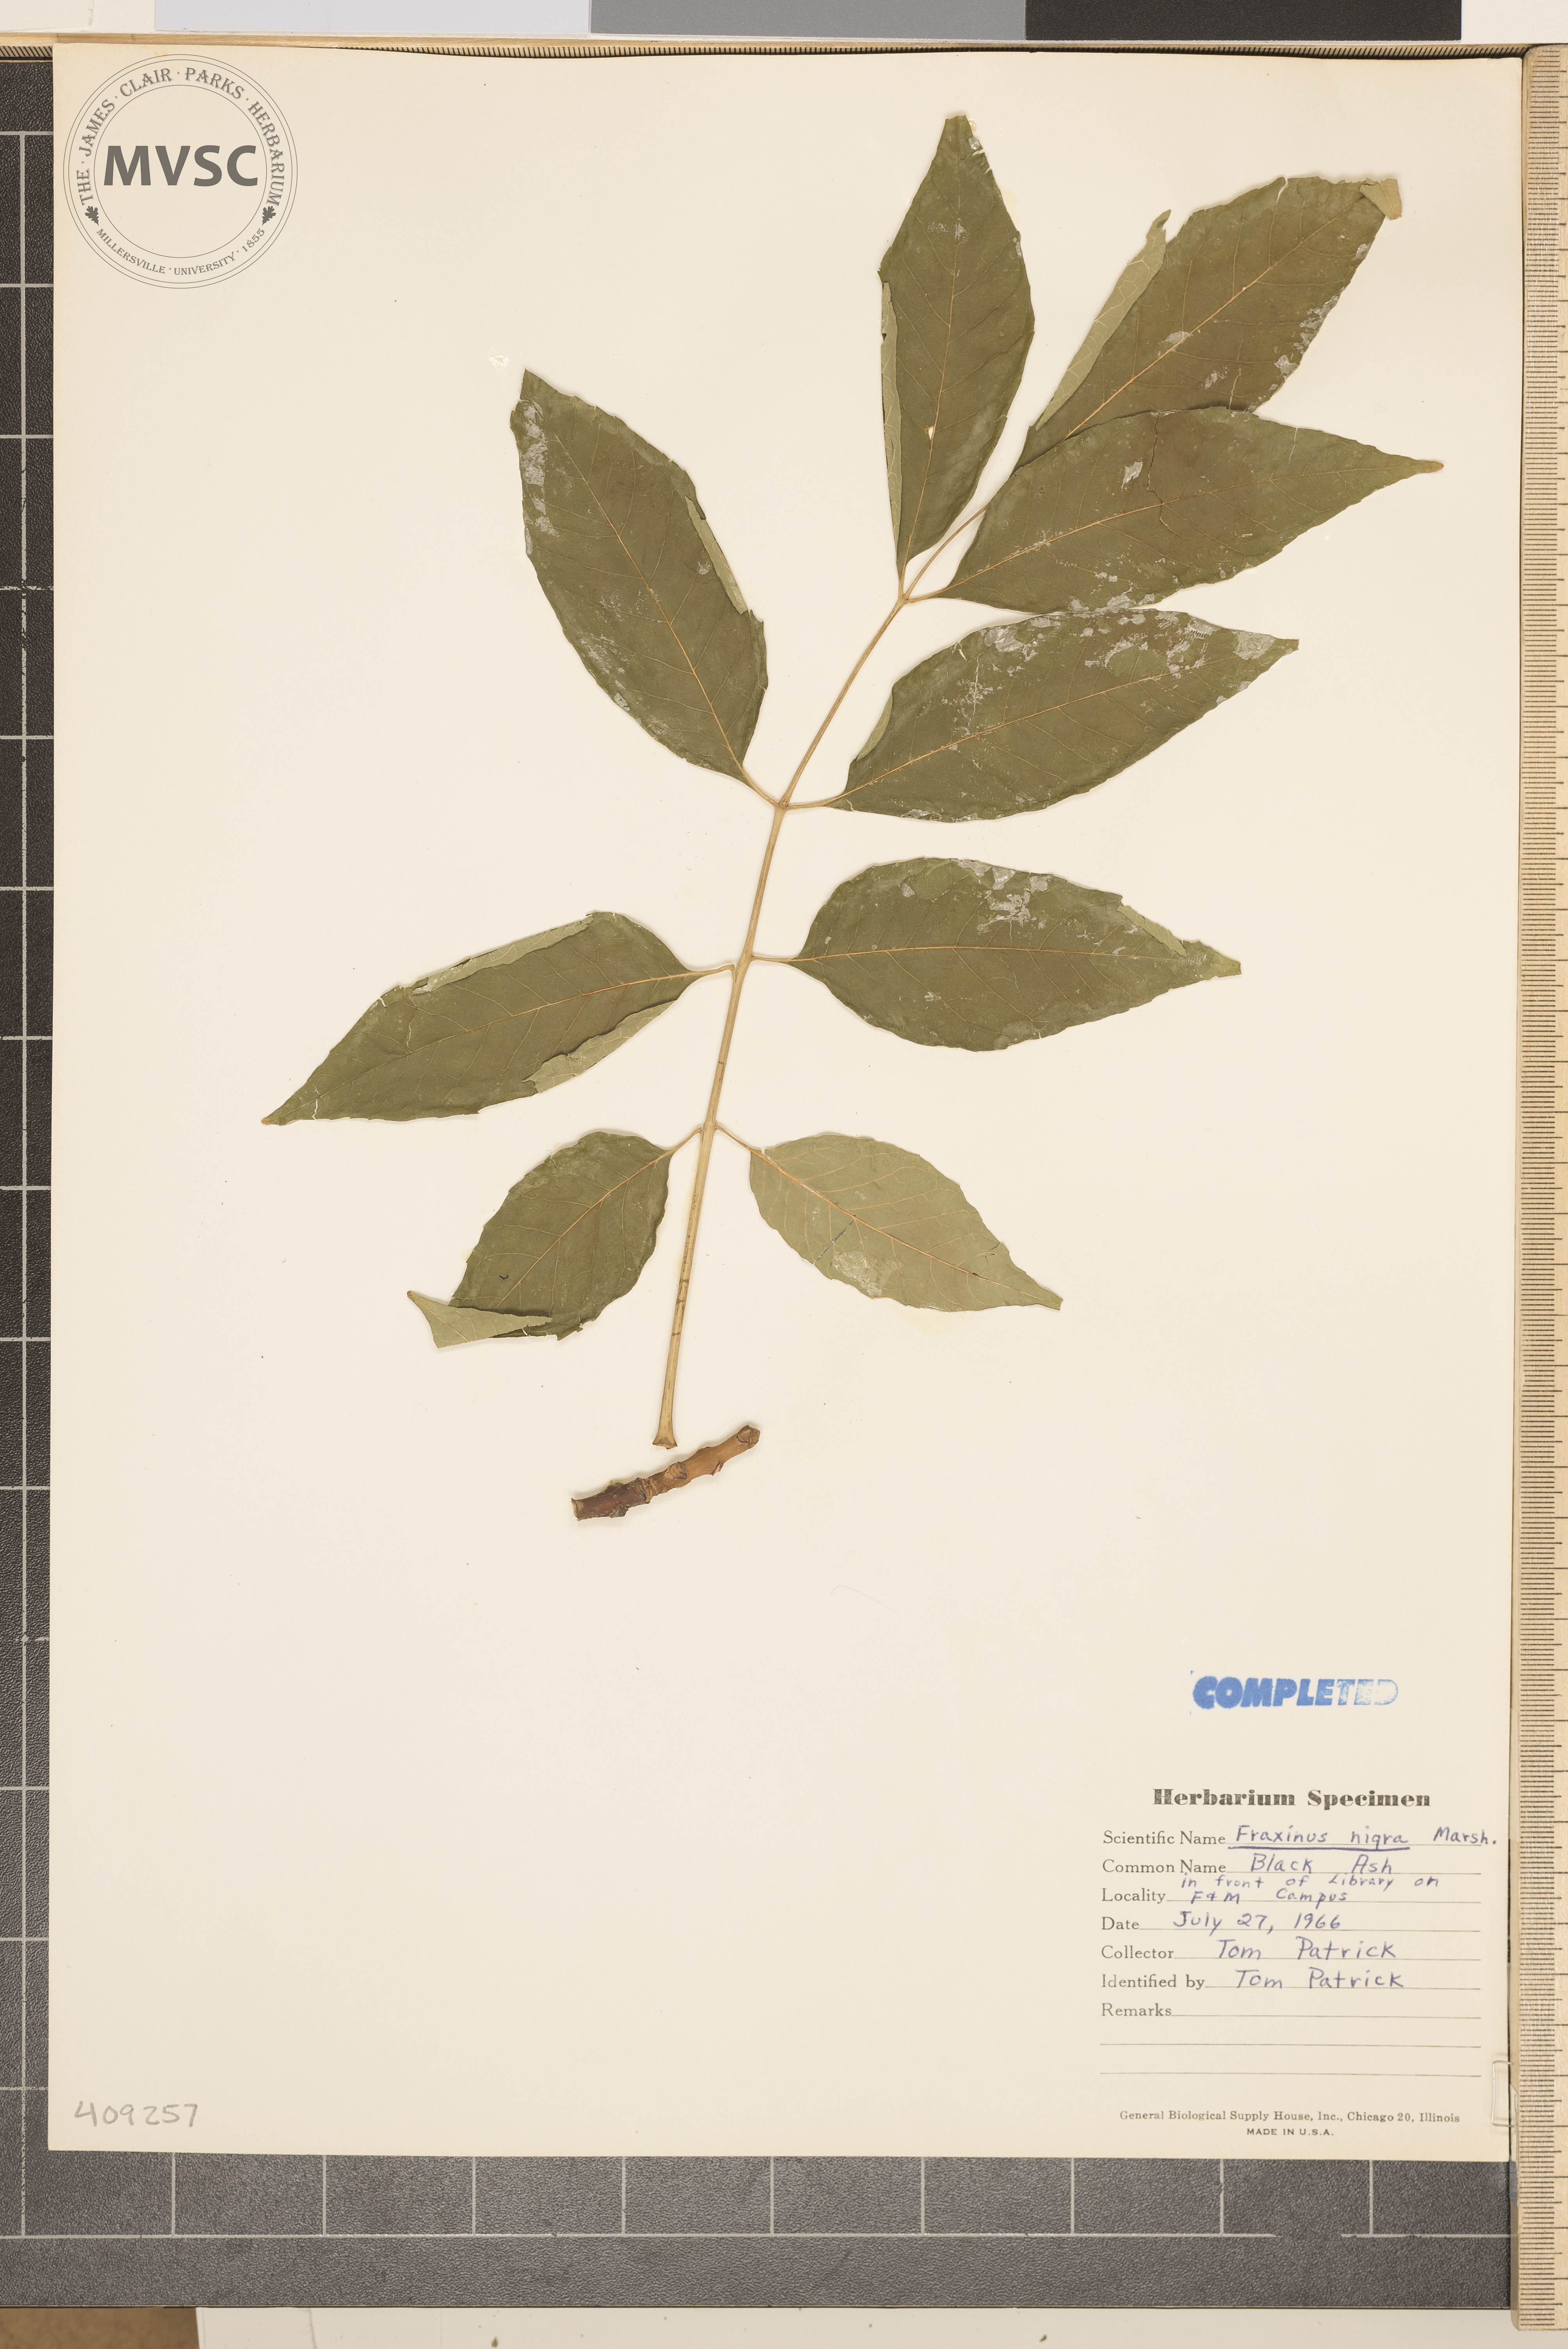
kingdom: Plantae
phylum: Tracheophyta
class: Magnoliopsida
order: Lamiales
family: Oleaceae
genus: Fraxinus
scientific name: Fraxinus americana
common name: White ash
